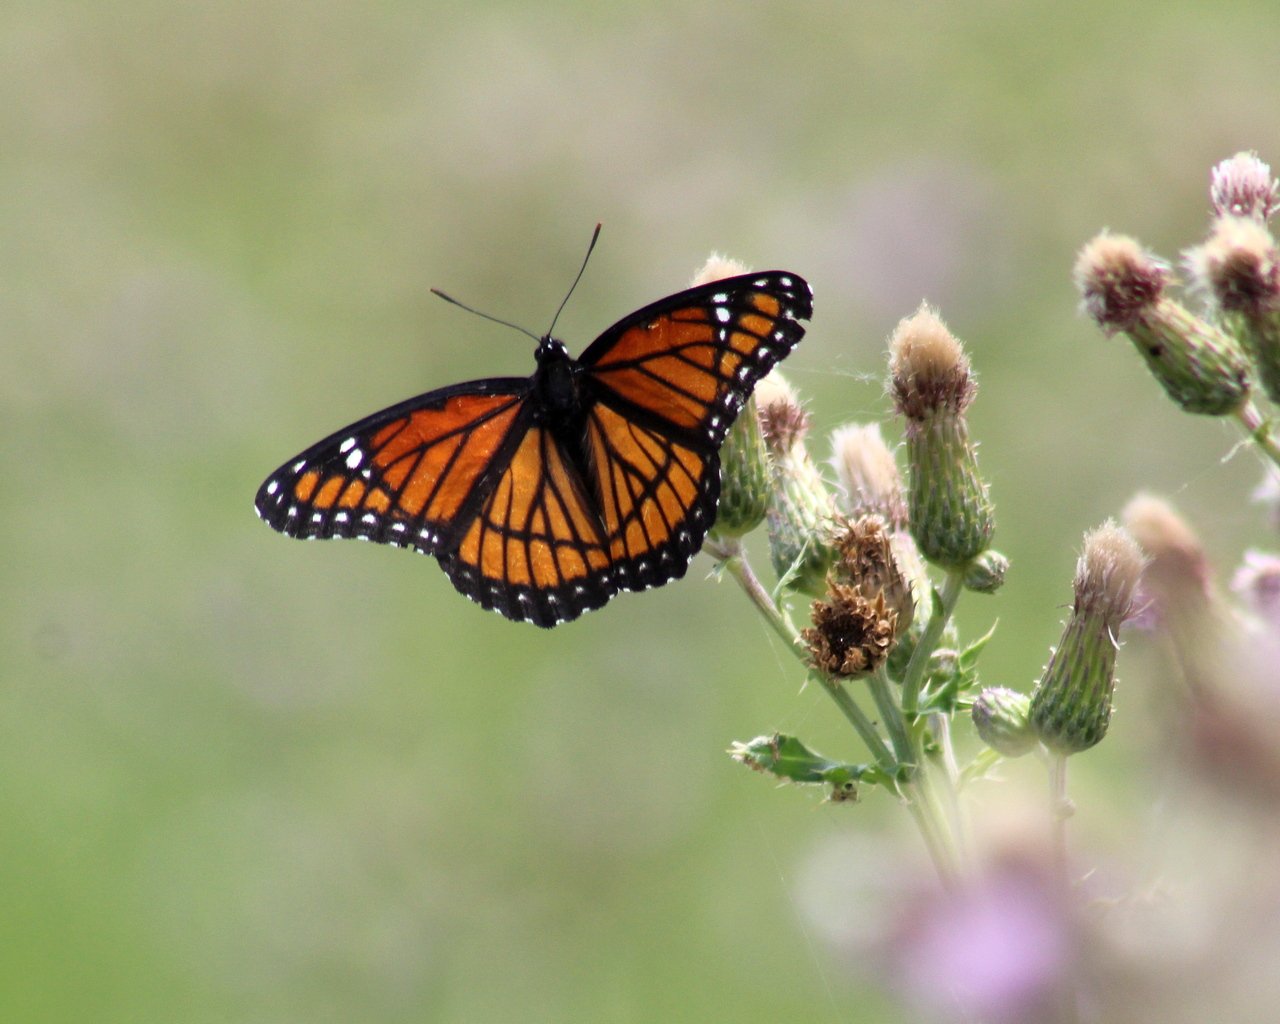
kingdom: Animalia
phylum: Arthropoda
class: Insecta
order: Lepidoptera
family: Nymphalidae
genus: Limenitis
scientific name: Limenitis archippus
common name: Viceroy
